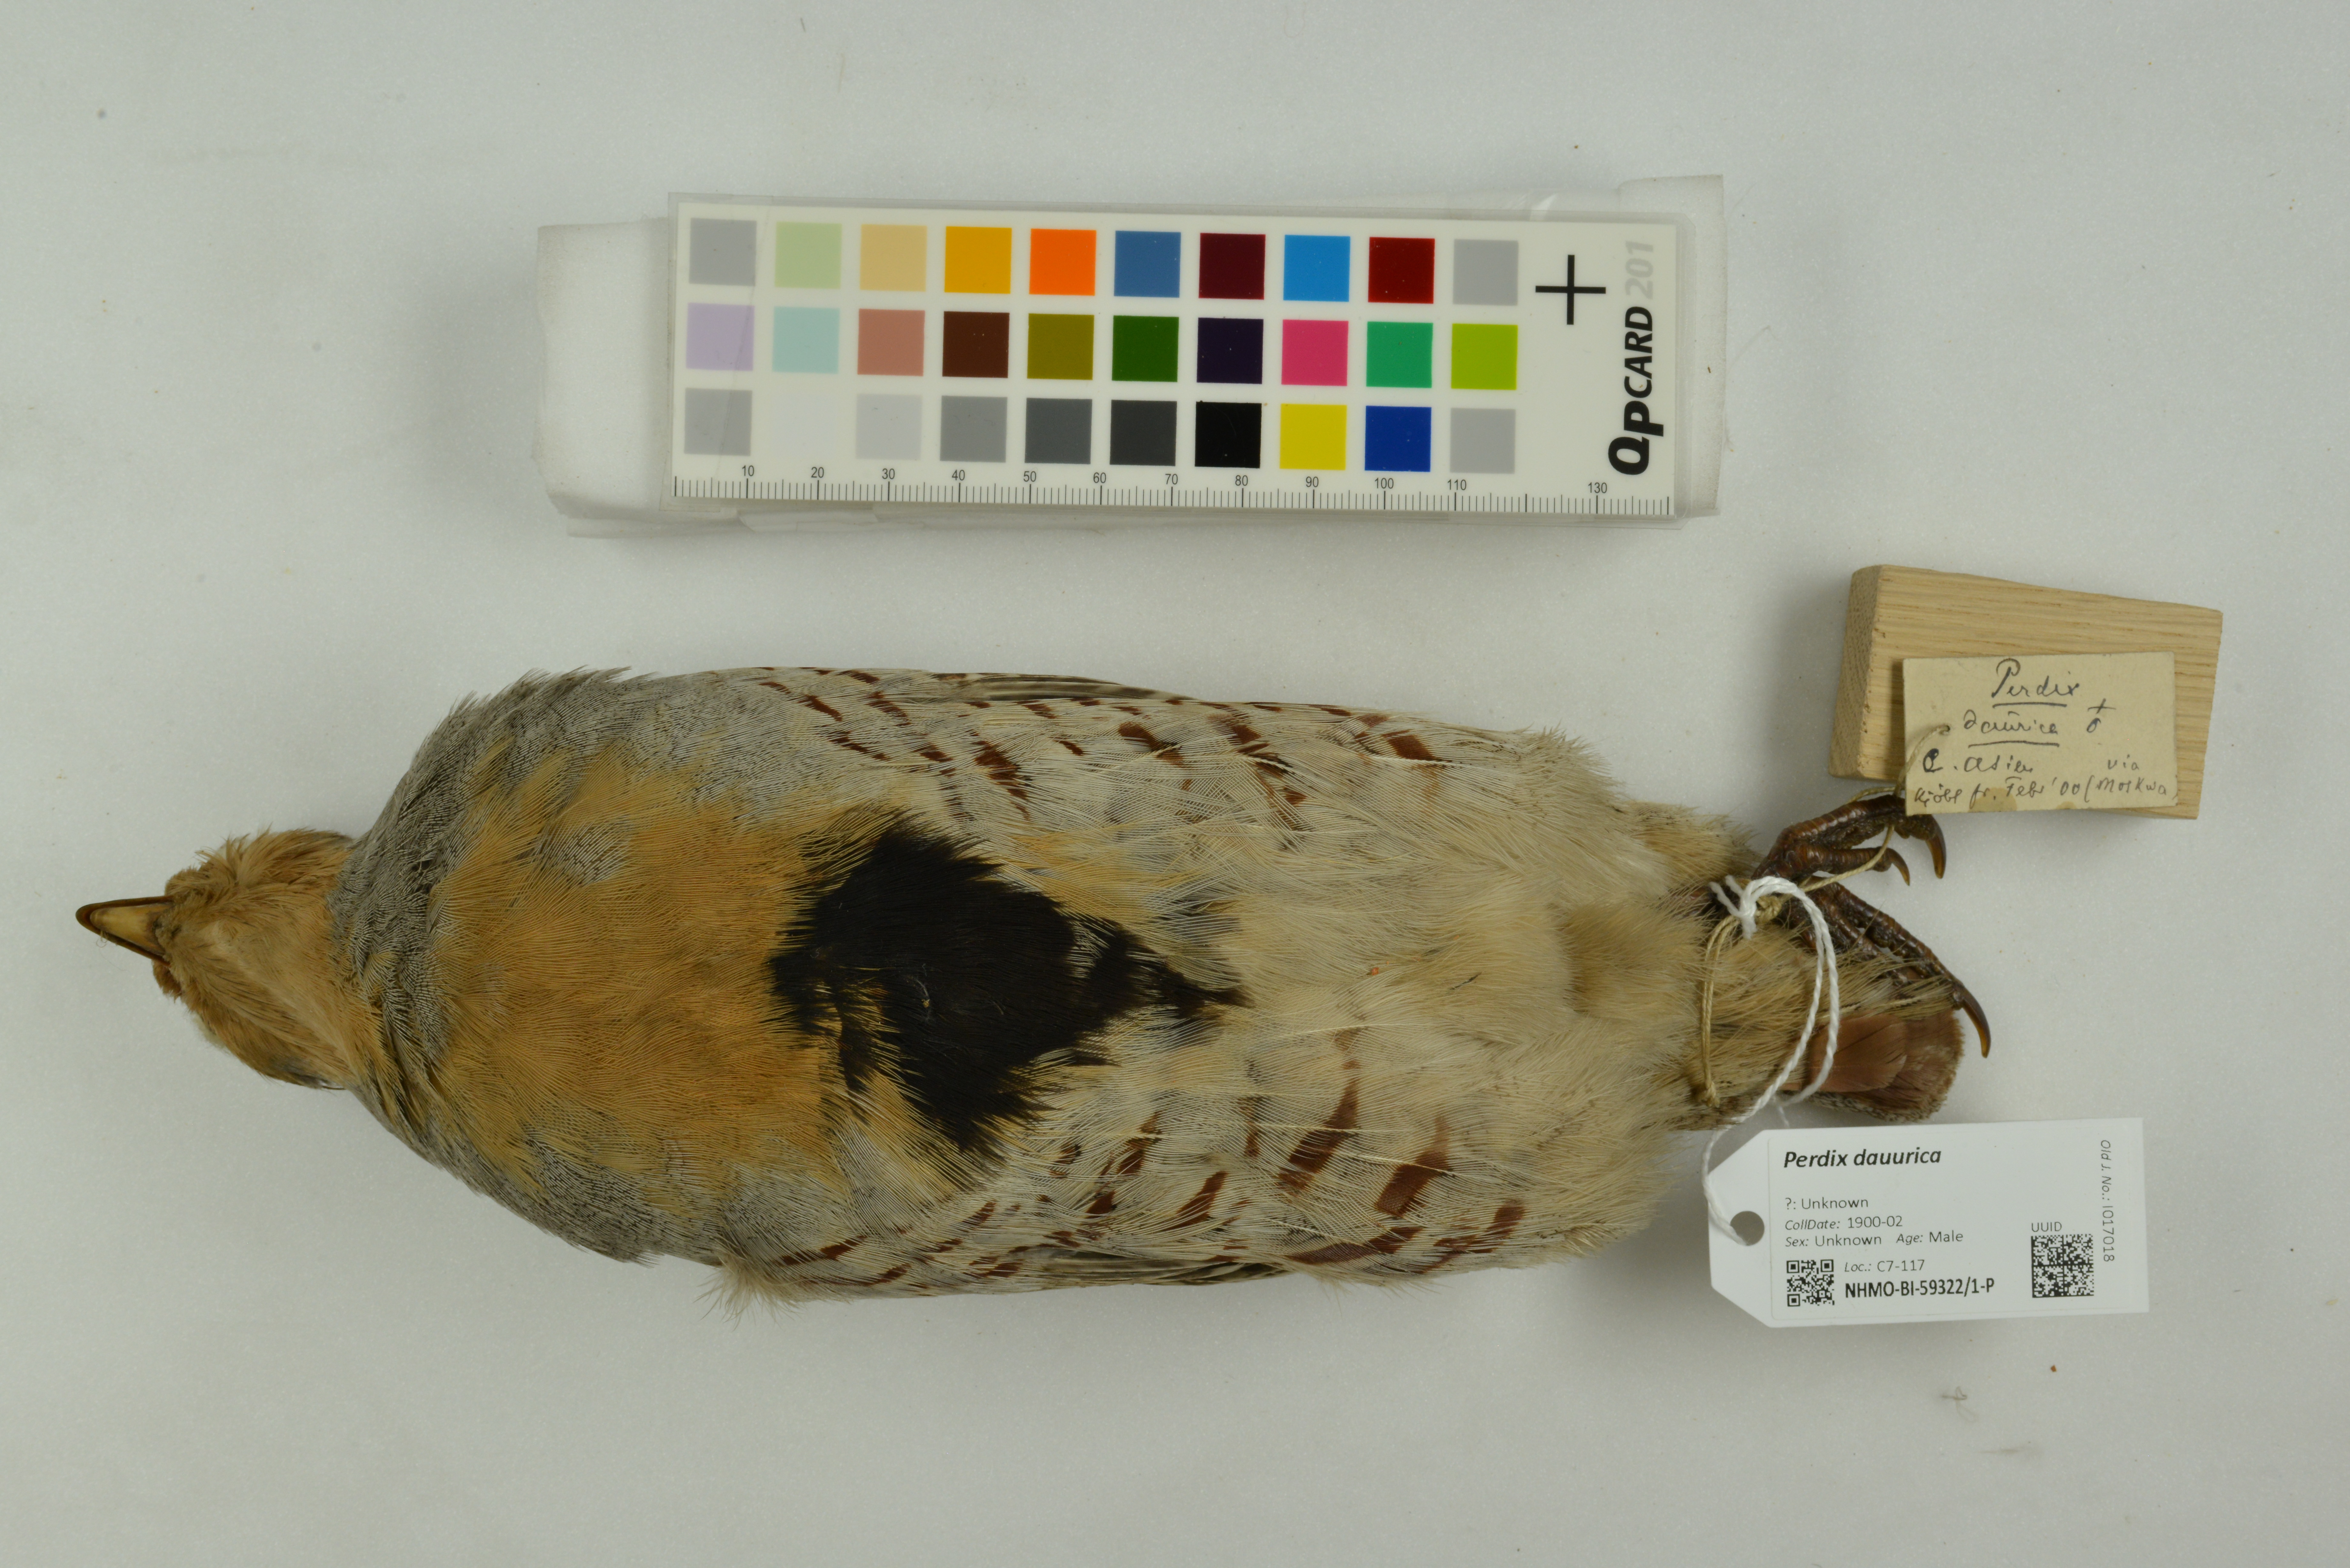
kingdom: Animalia
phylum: Chordata
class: Aves
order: Galliformes
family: Phasianidae
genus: Perdix
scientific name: Perdix dauurica
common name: Daurian partridge
